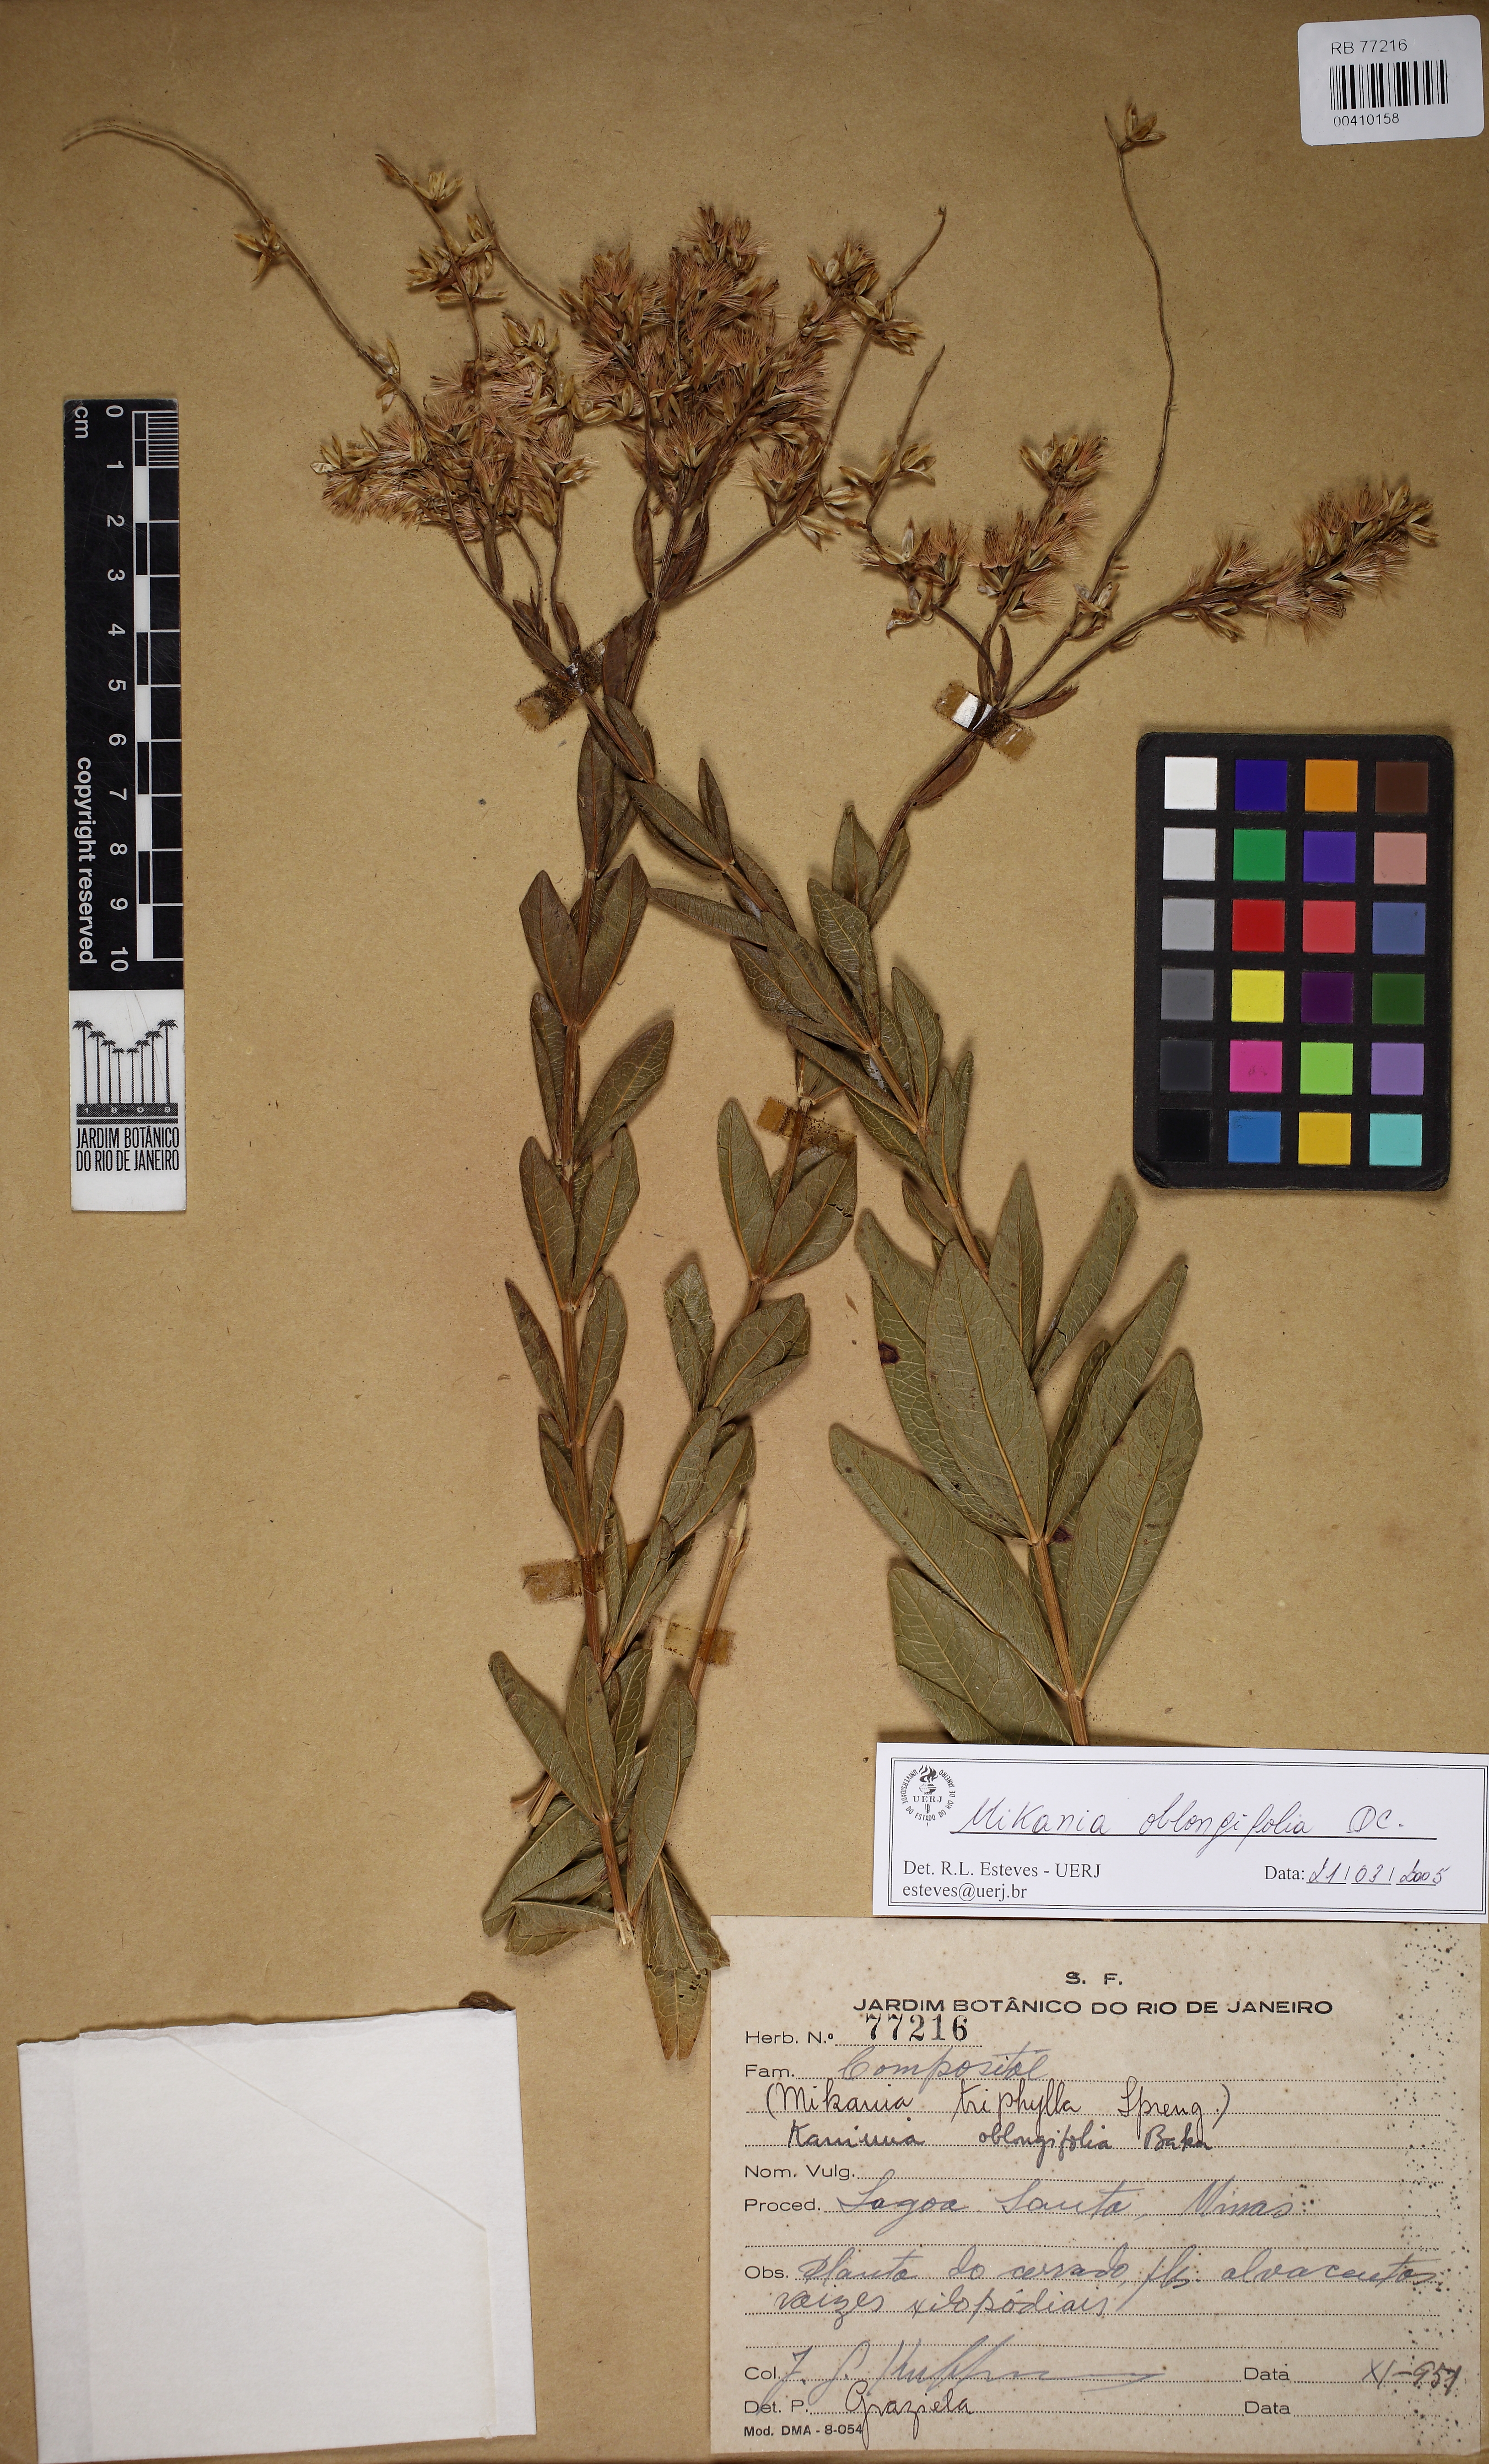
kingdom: Plantae
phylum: Tracheophyta
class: Magnoliopsida
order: Asterales
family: Asteraceae
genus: Mikania
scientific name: Mikania oblongifolia
